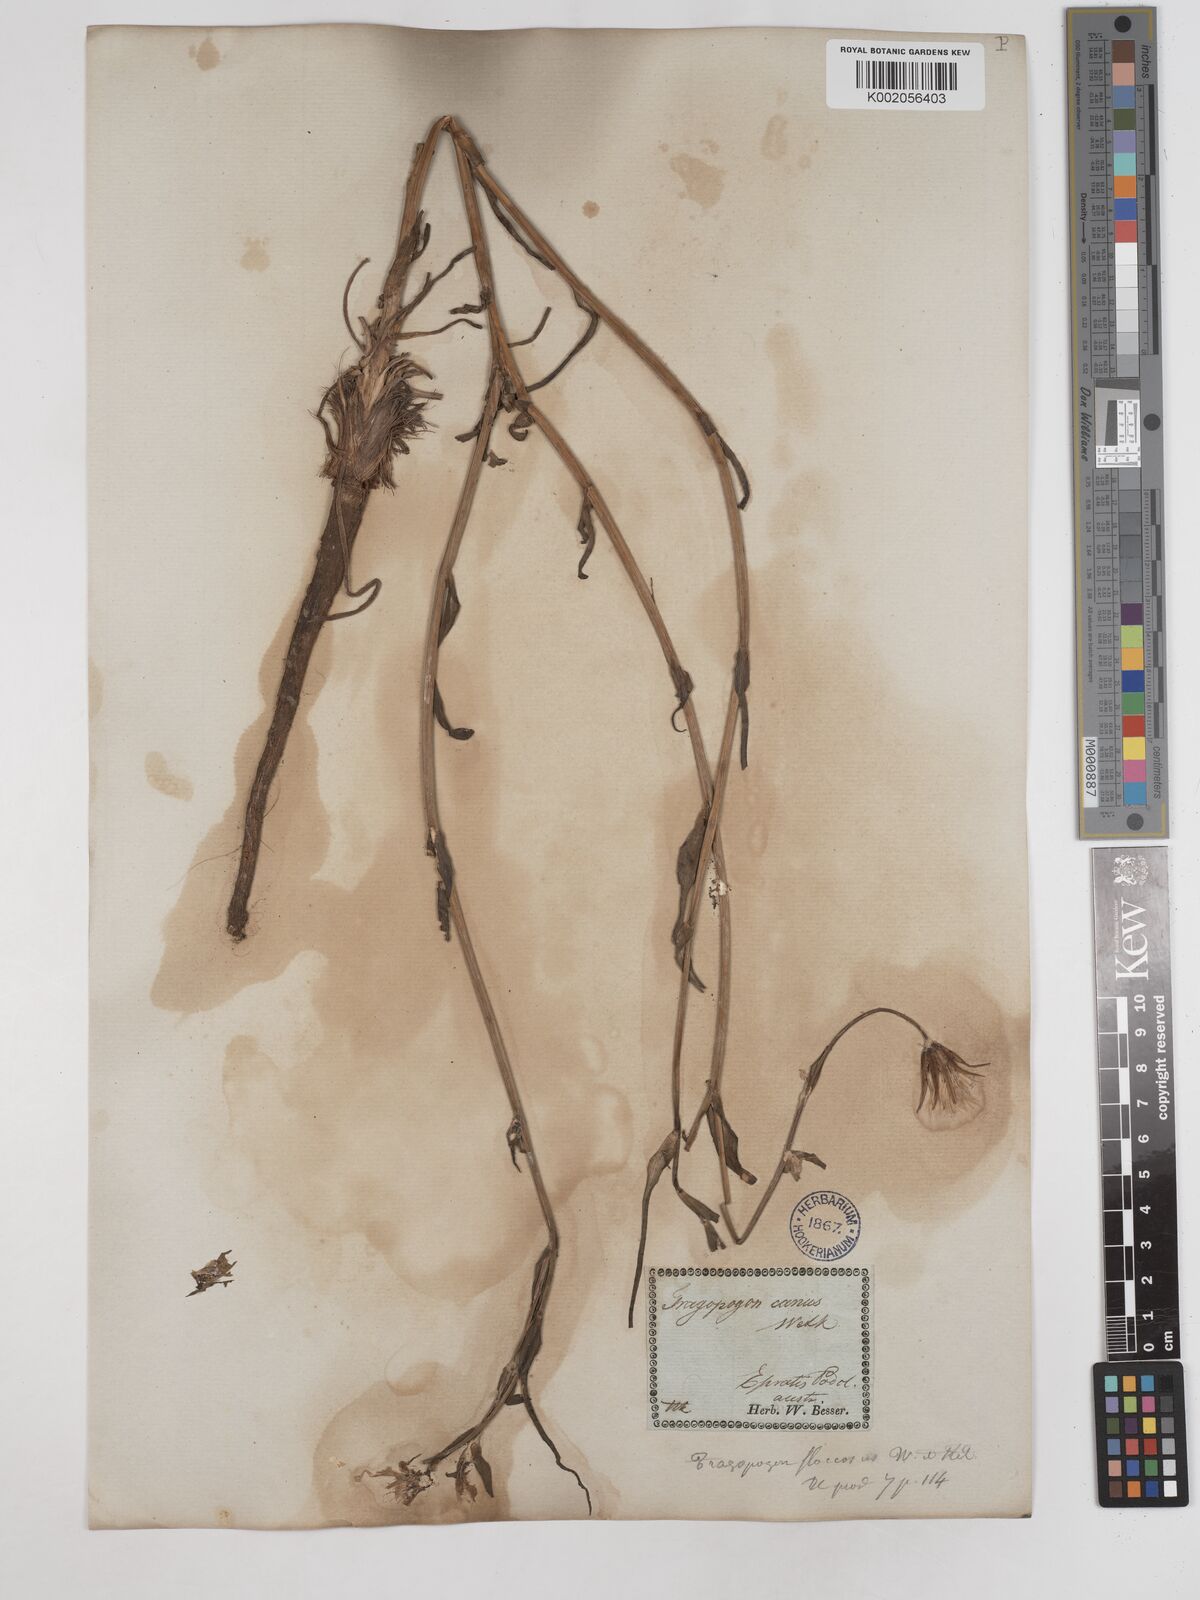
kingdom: Plantae
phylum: Tracheophyta
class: Magnoliopsida
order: Asterales
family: Asteraceae
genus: Tragopogon
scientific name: Tragopogon brevirostris
